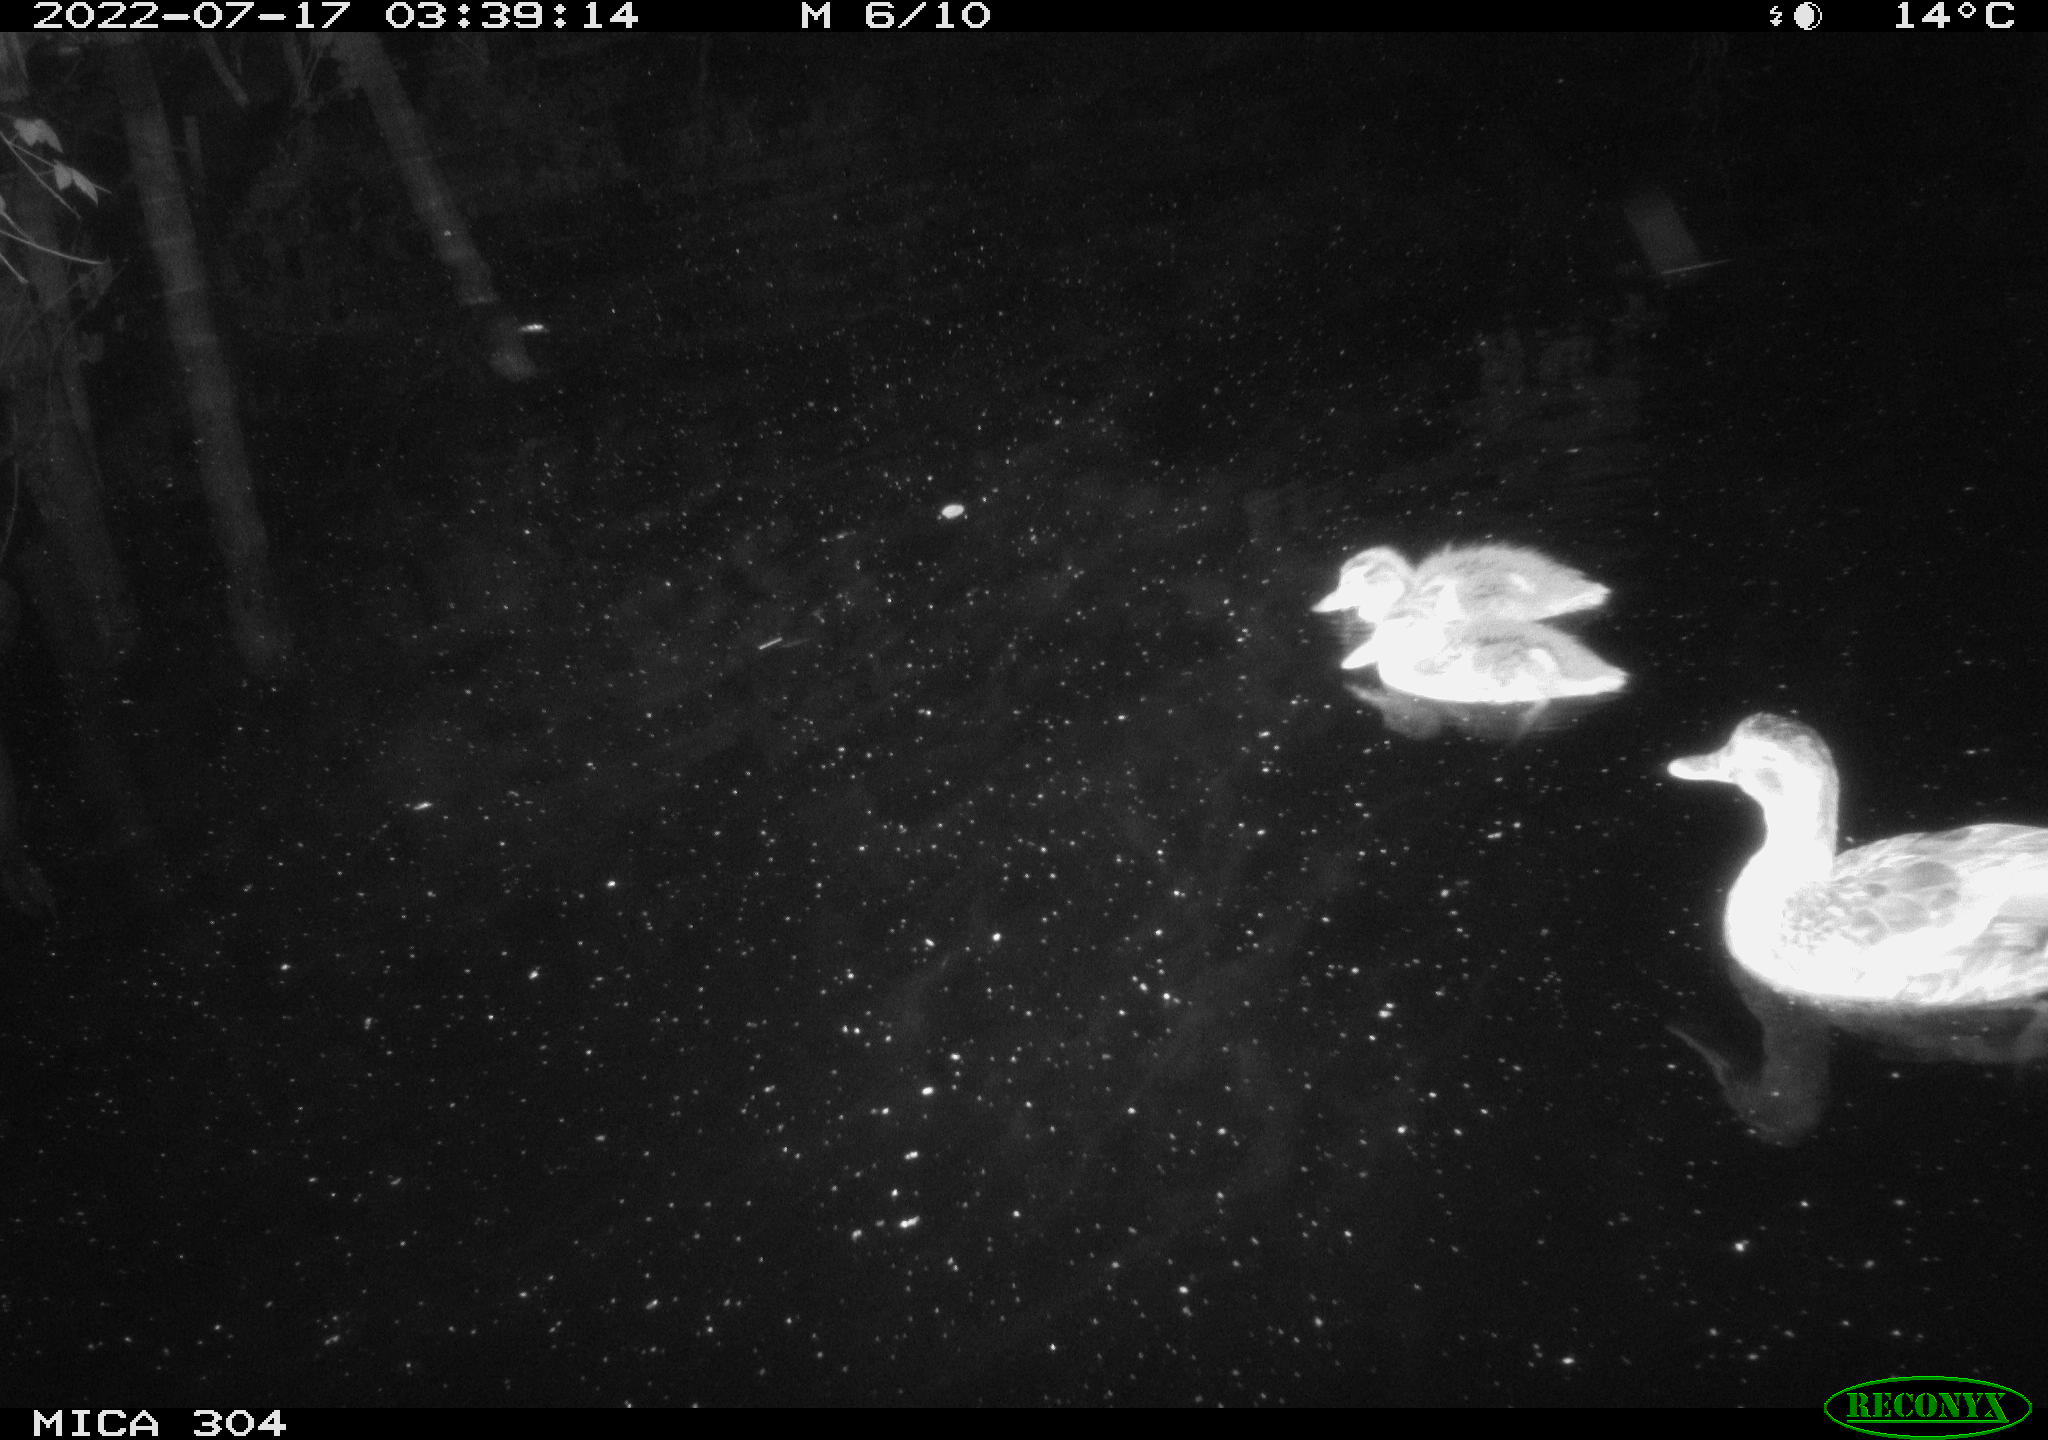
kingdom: Animalia
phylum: Chordata
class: Aves
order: Anseriformes
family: Anatidae
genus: Anas
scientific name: Anas platyrhynchos
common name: Mallard
